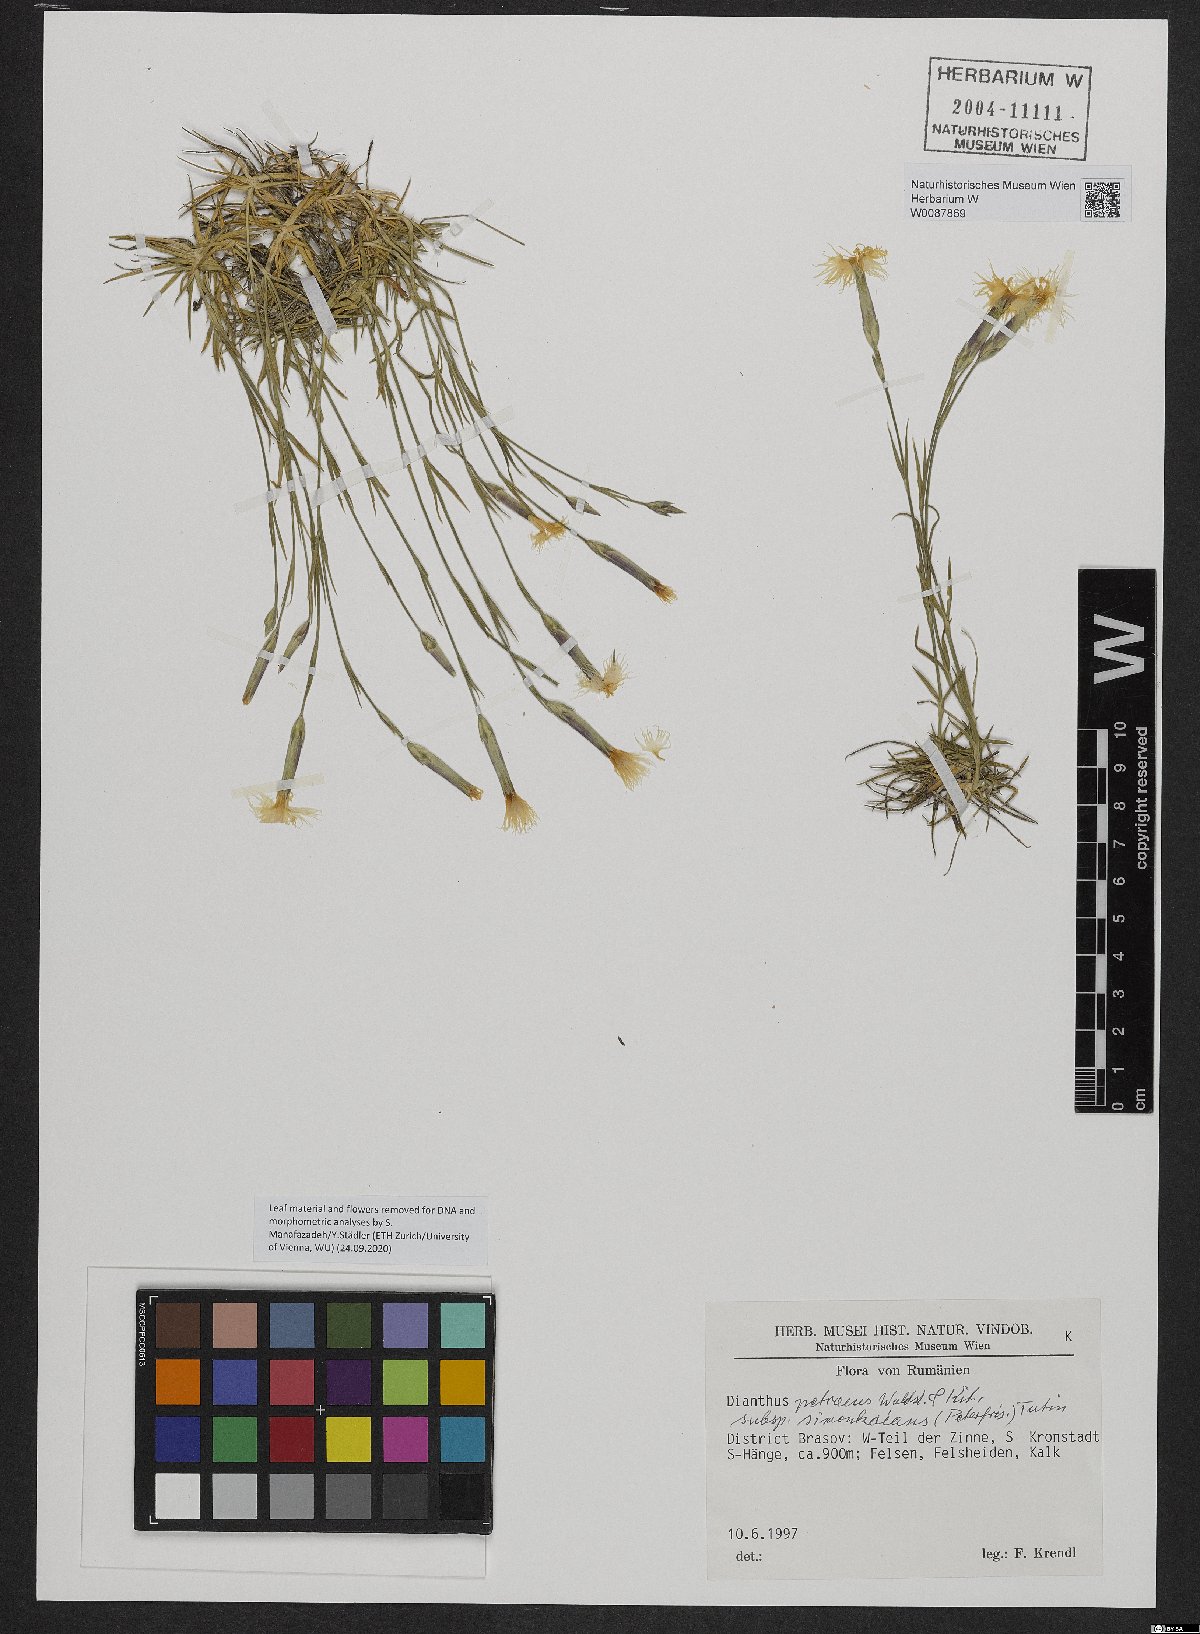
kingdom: Plantae
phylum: Tracheophyta
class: Magnoliopsida
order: Caryophyllales
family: Caryophyllaceae
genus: Dianthus
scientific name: Dianthus petraeus
